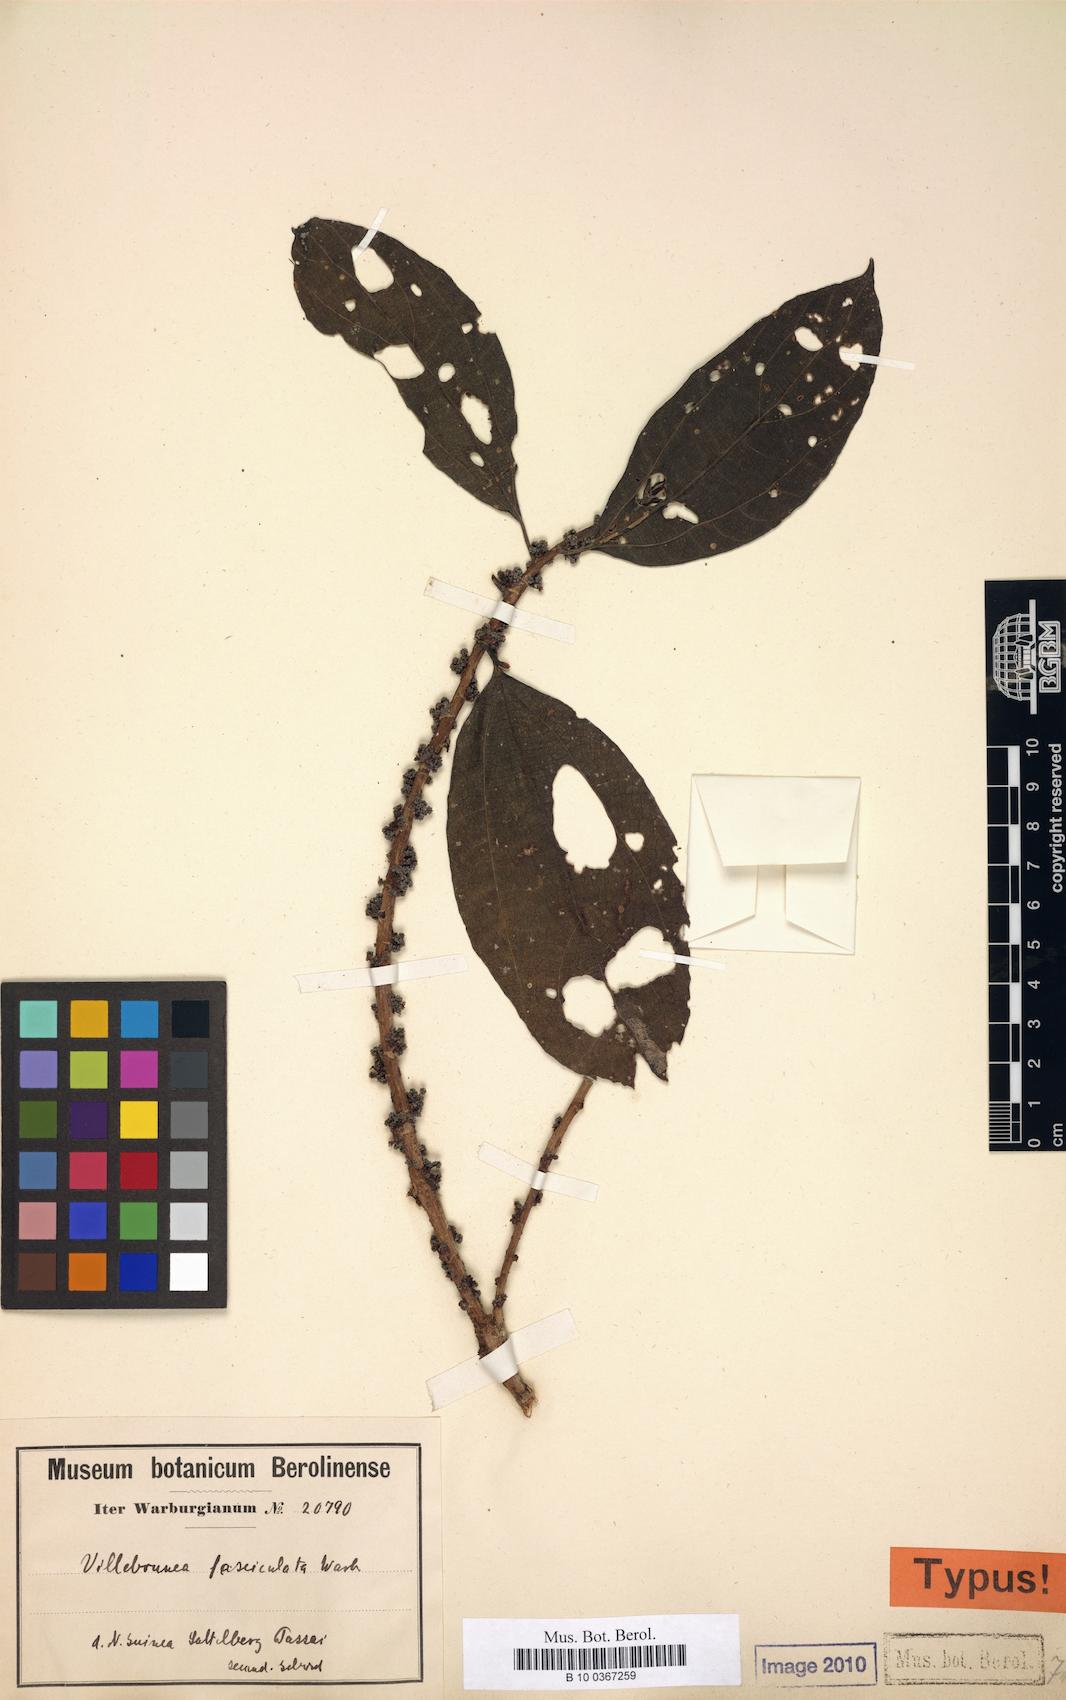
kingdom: Plantae
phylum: Tracheophyta
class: Magnoliopsida
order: Rosales
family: Urticaceae
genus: Oreocnide
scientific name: Oreocnide
